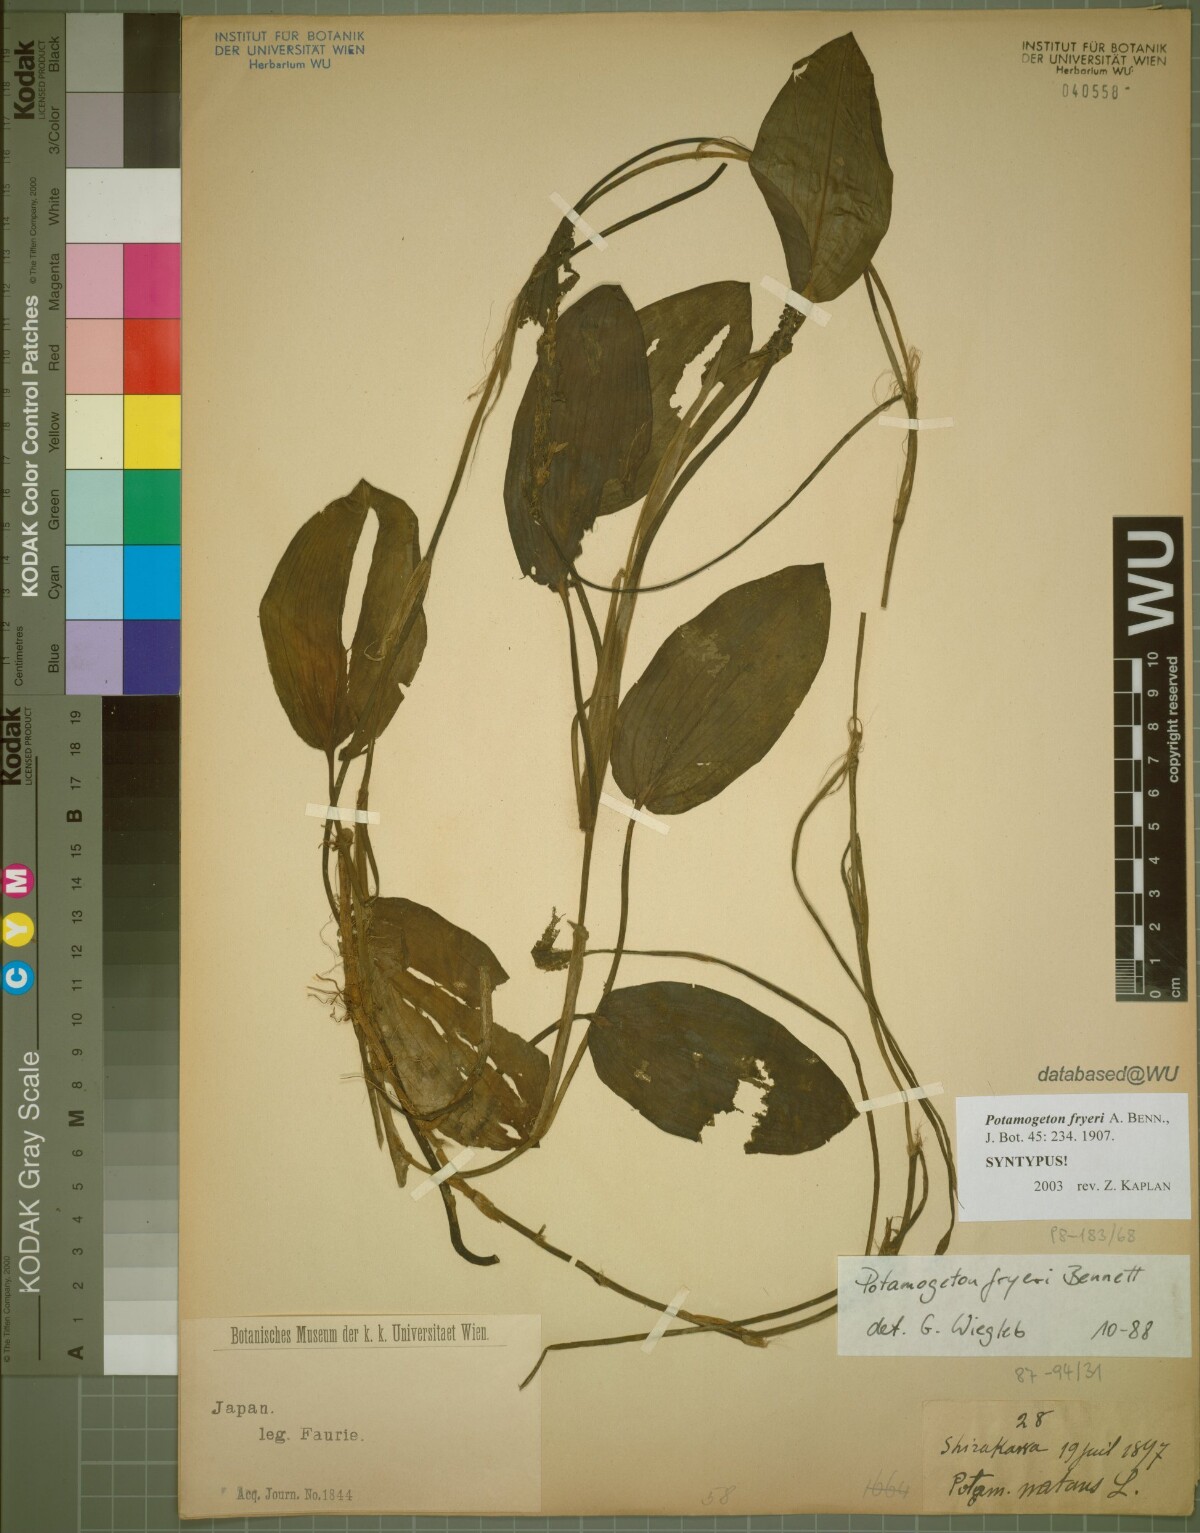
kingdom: Plantae
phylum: Tracheophyta
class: Liliopsida
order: Alismatales
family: Potamogetonaceae
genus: Potamogeton
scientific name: Potamogeton fryeri
